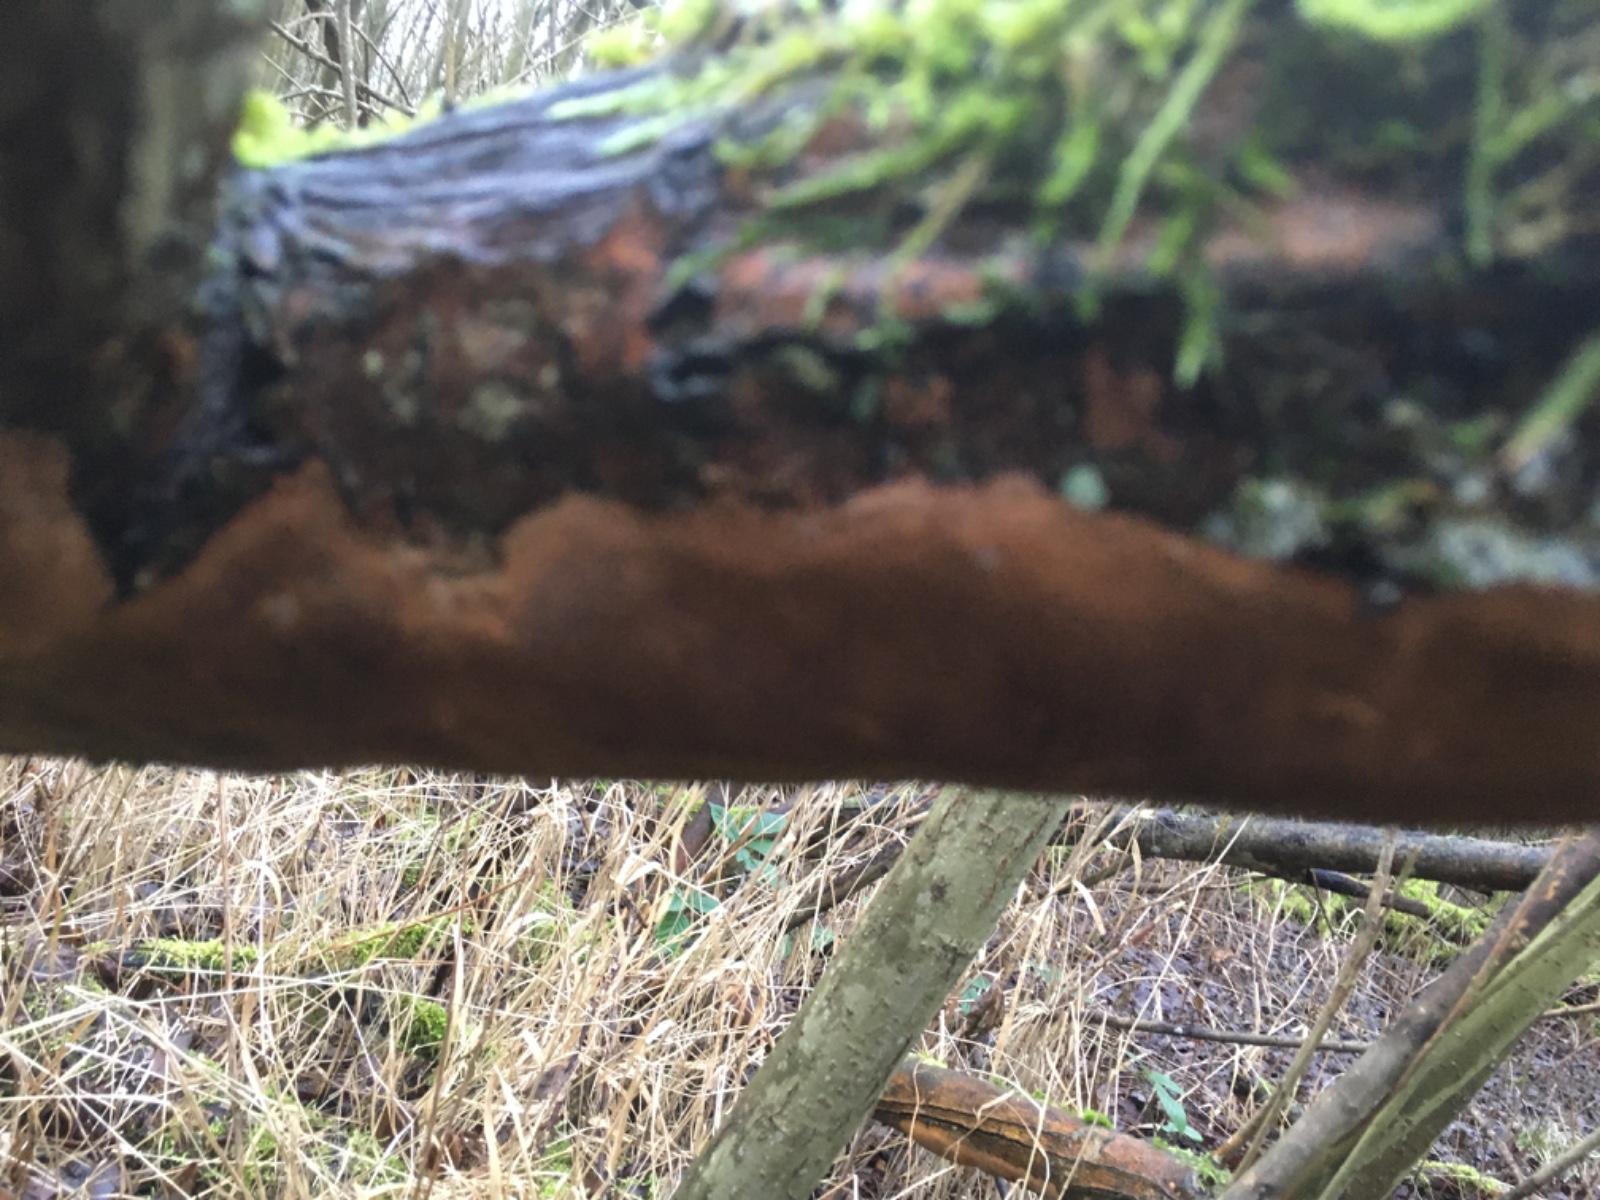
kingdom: Fungi
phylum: Basidiomycota
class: Agaricomycetes
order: Hymenochaetales
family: Hymenochaetaceae
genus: Fomitiporia
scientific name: Fomitiporia punctata
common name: pude-ildporesvamp
